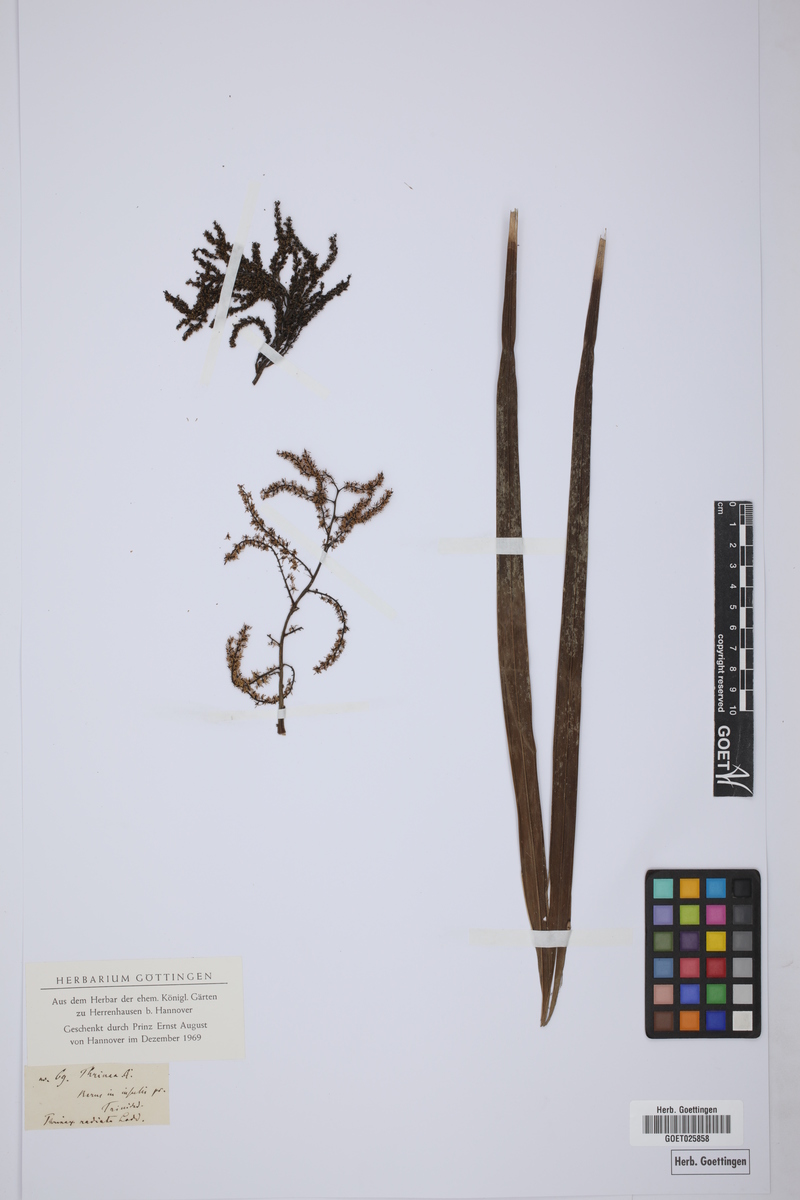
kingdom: Plantae
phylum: Tracheophyta
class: Liliopsida
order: Arecales
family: Arecaceae
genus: Thrinax
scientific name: Thrinax radiata
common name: Florida thatch
